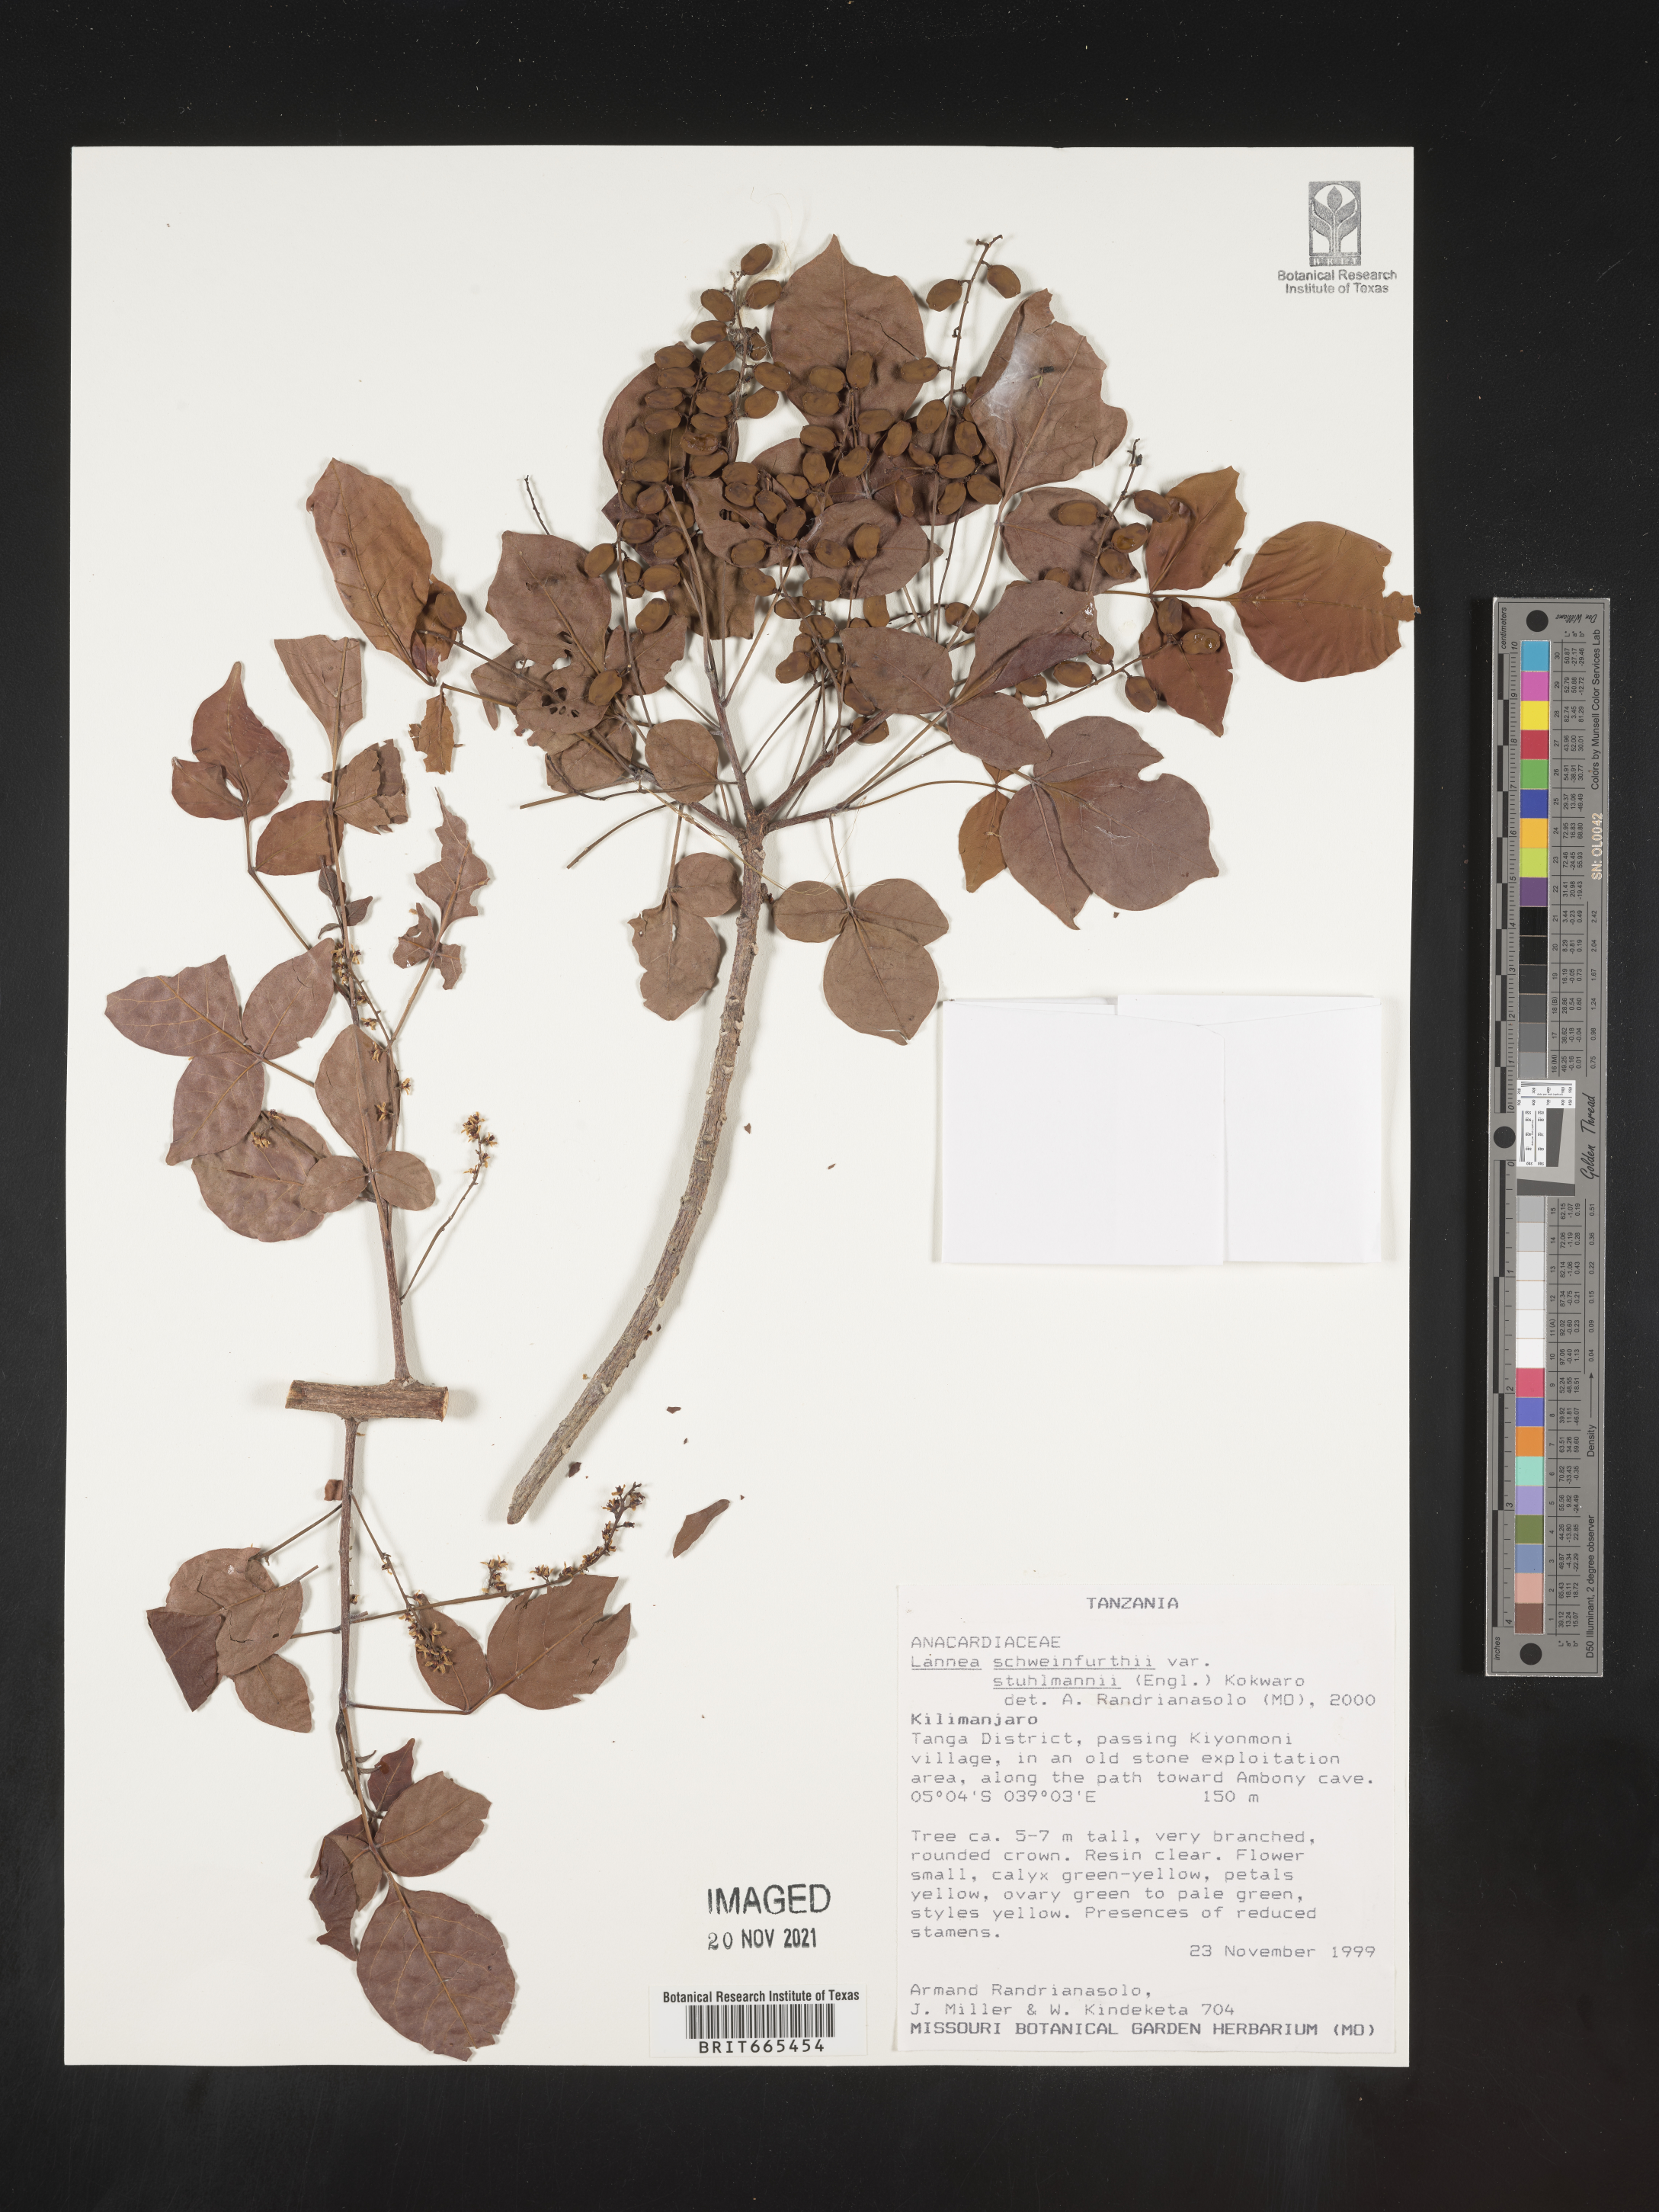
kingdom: Plantae
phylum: Tracheophyta
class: Magnoliopsida
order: Sapindales
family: Anacardiaceae
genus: Lannea
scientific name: Lannea schweinfurthii
